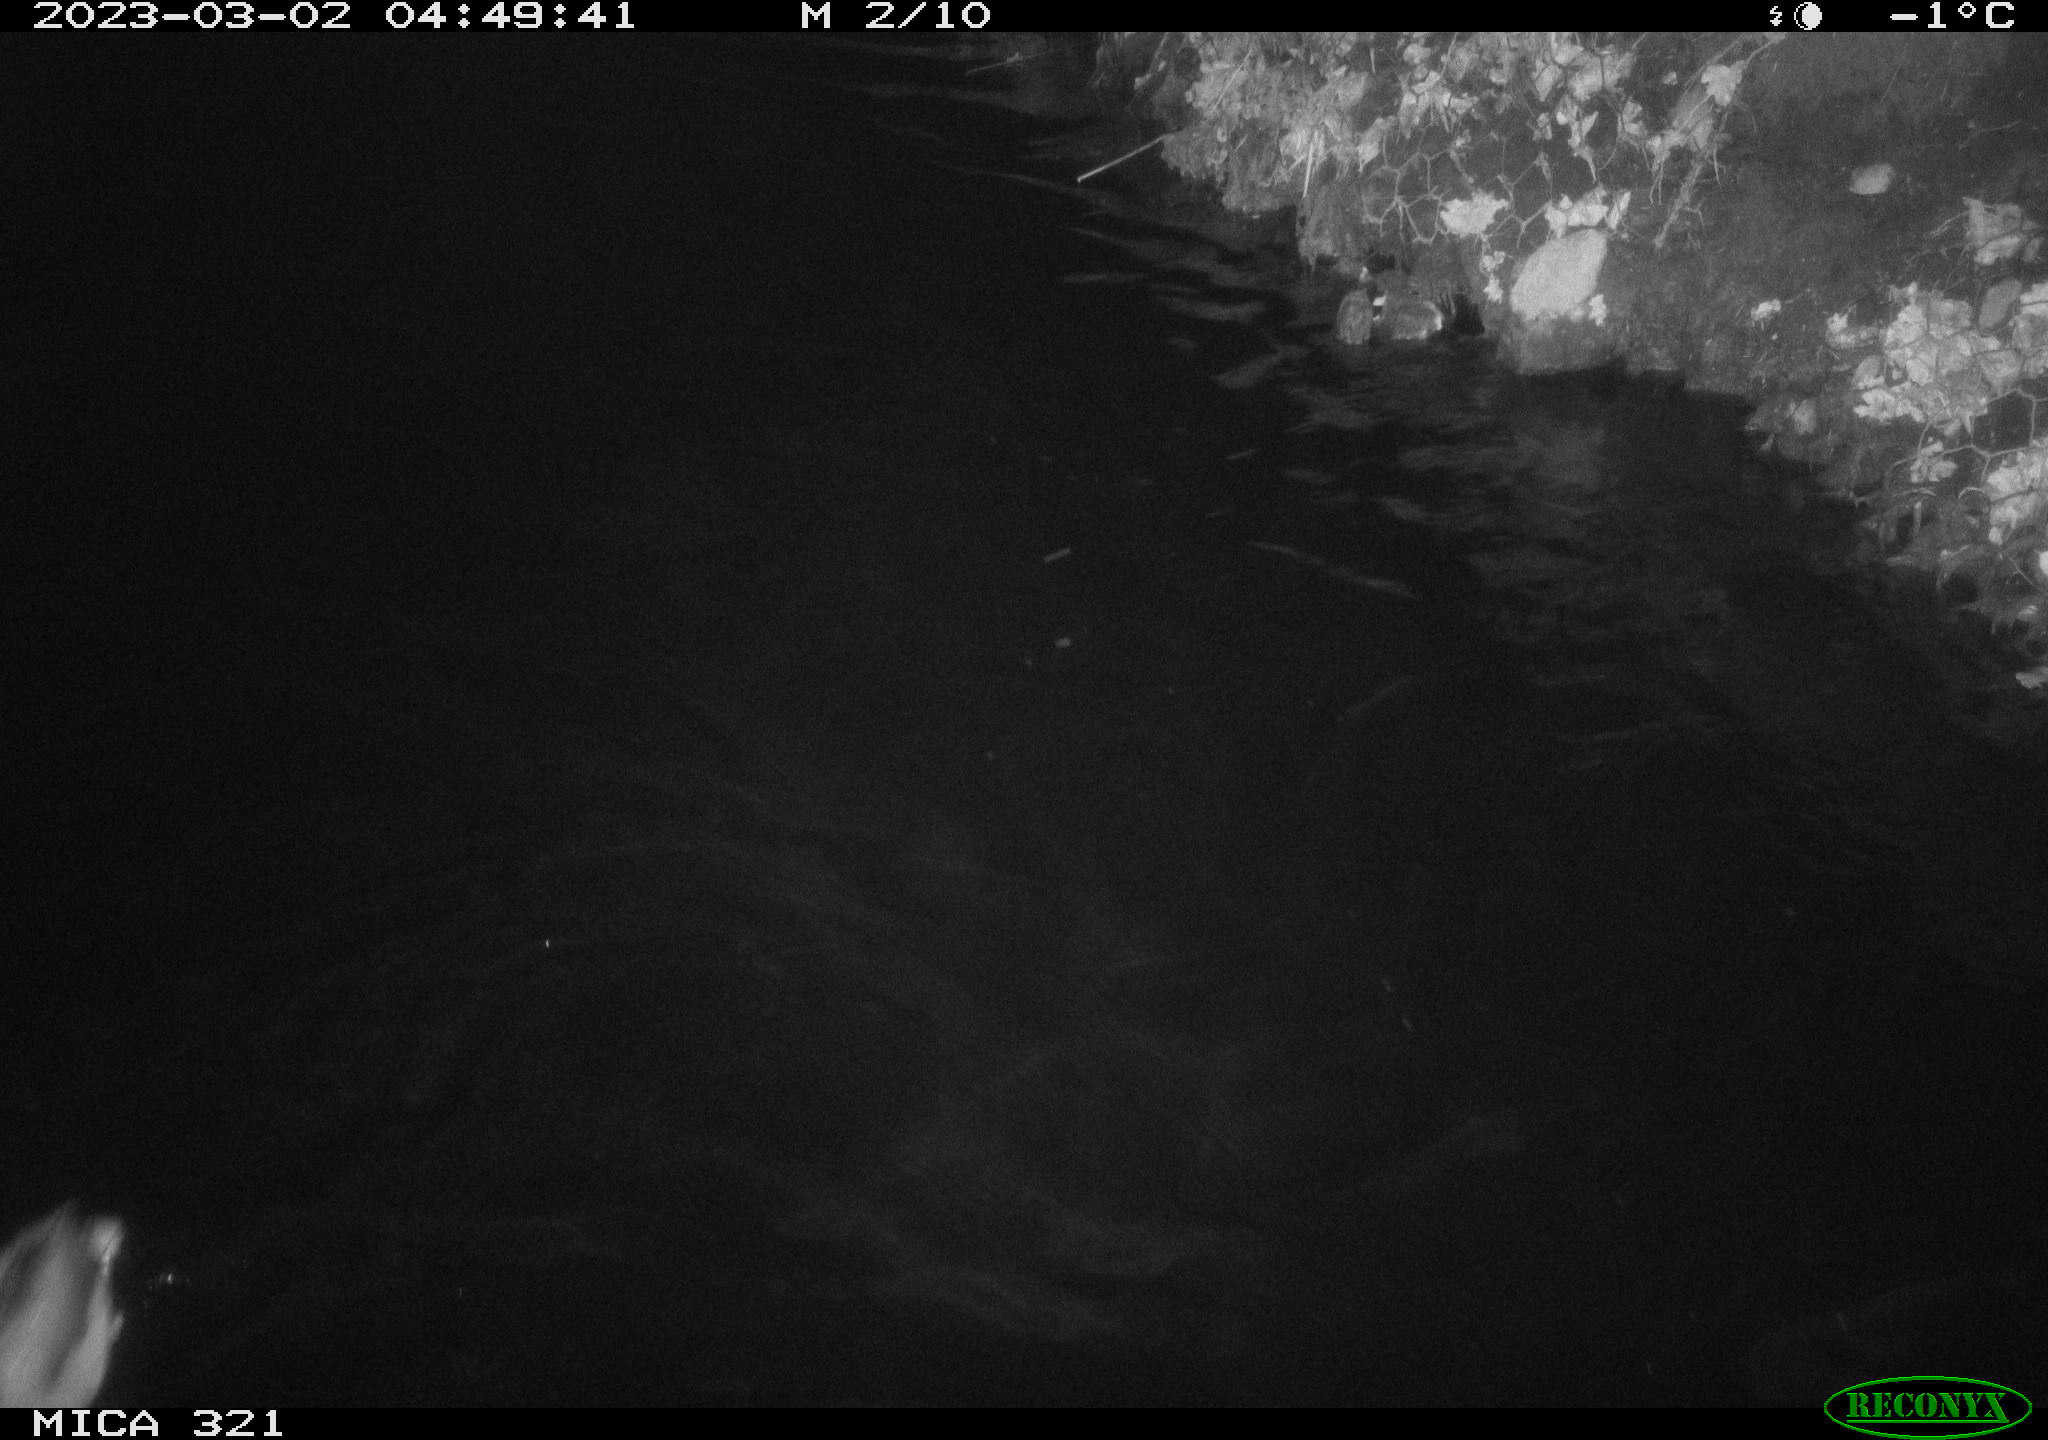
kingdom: Animalia
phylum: Chordata
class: Aves
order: Anseriformes
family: Anatidae
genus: Anas
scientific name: Anas
